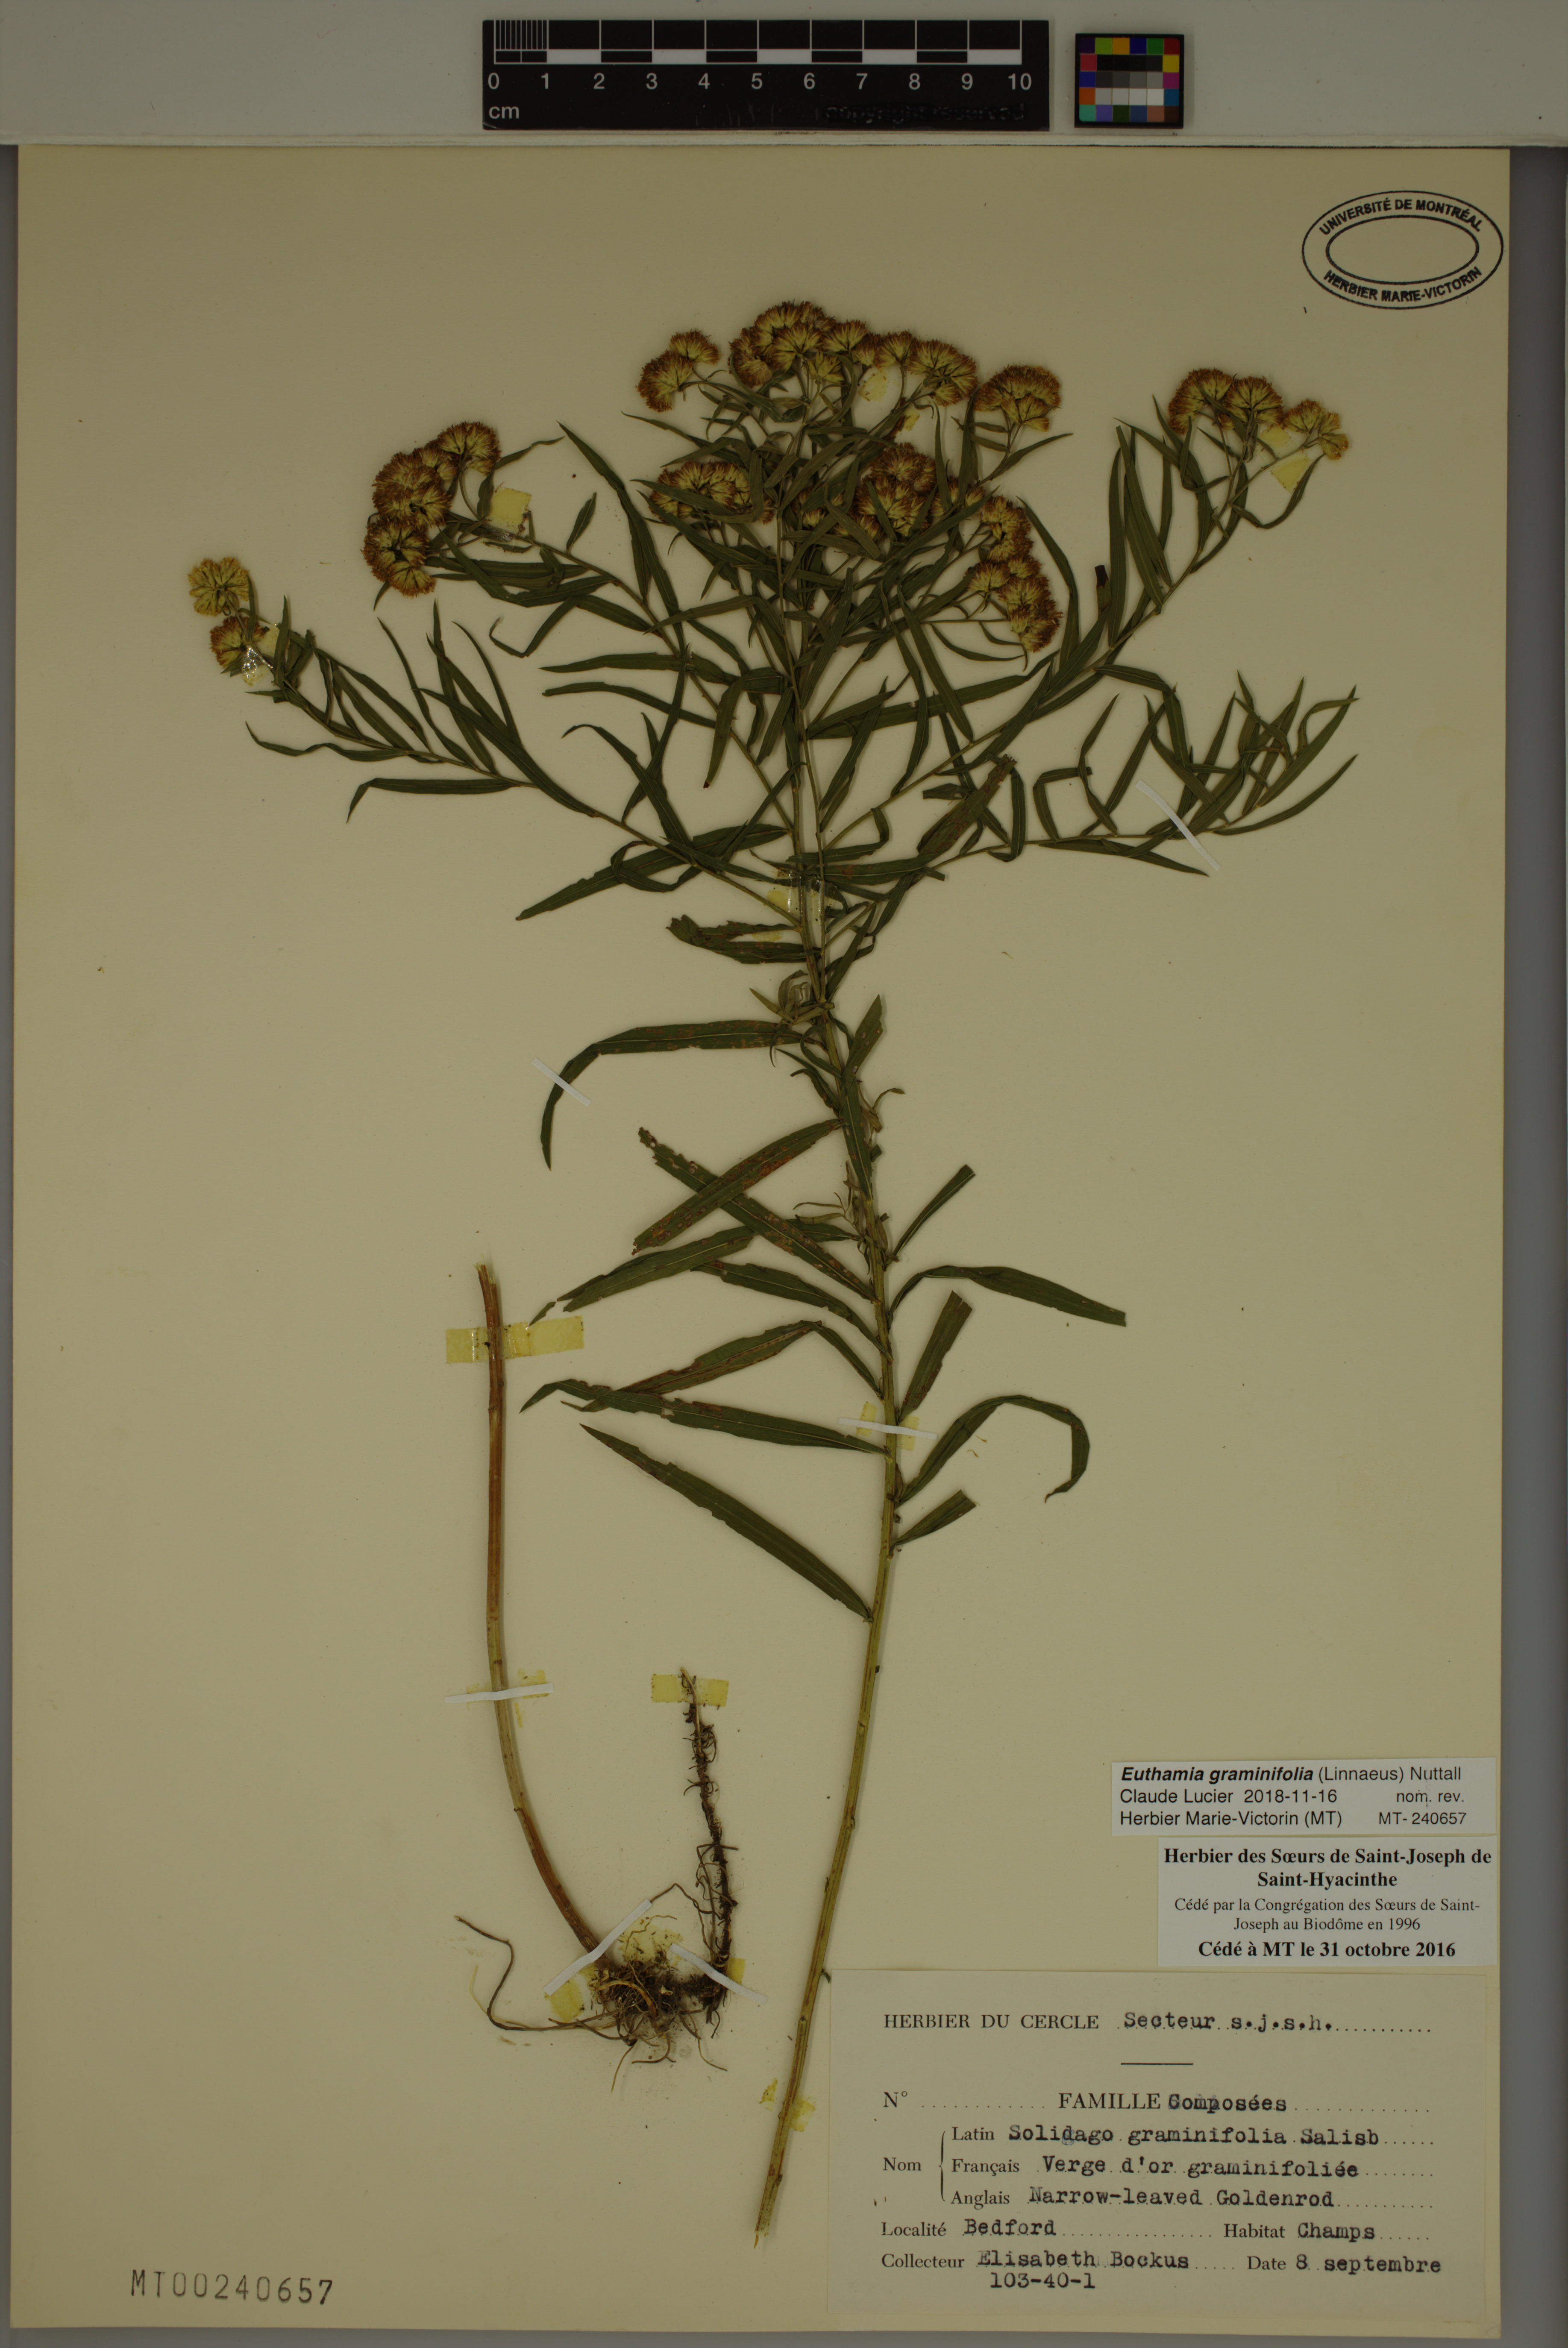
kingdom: Plantae
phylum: Tracheophyta
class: Magnoliopsida
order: Asterales
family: Asteraceae
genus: Euthamia
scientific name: Euthamia graminifolia
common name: Common goldentop
